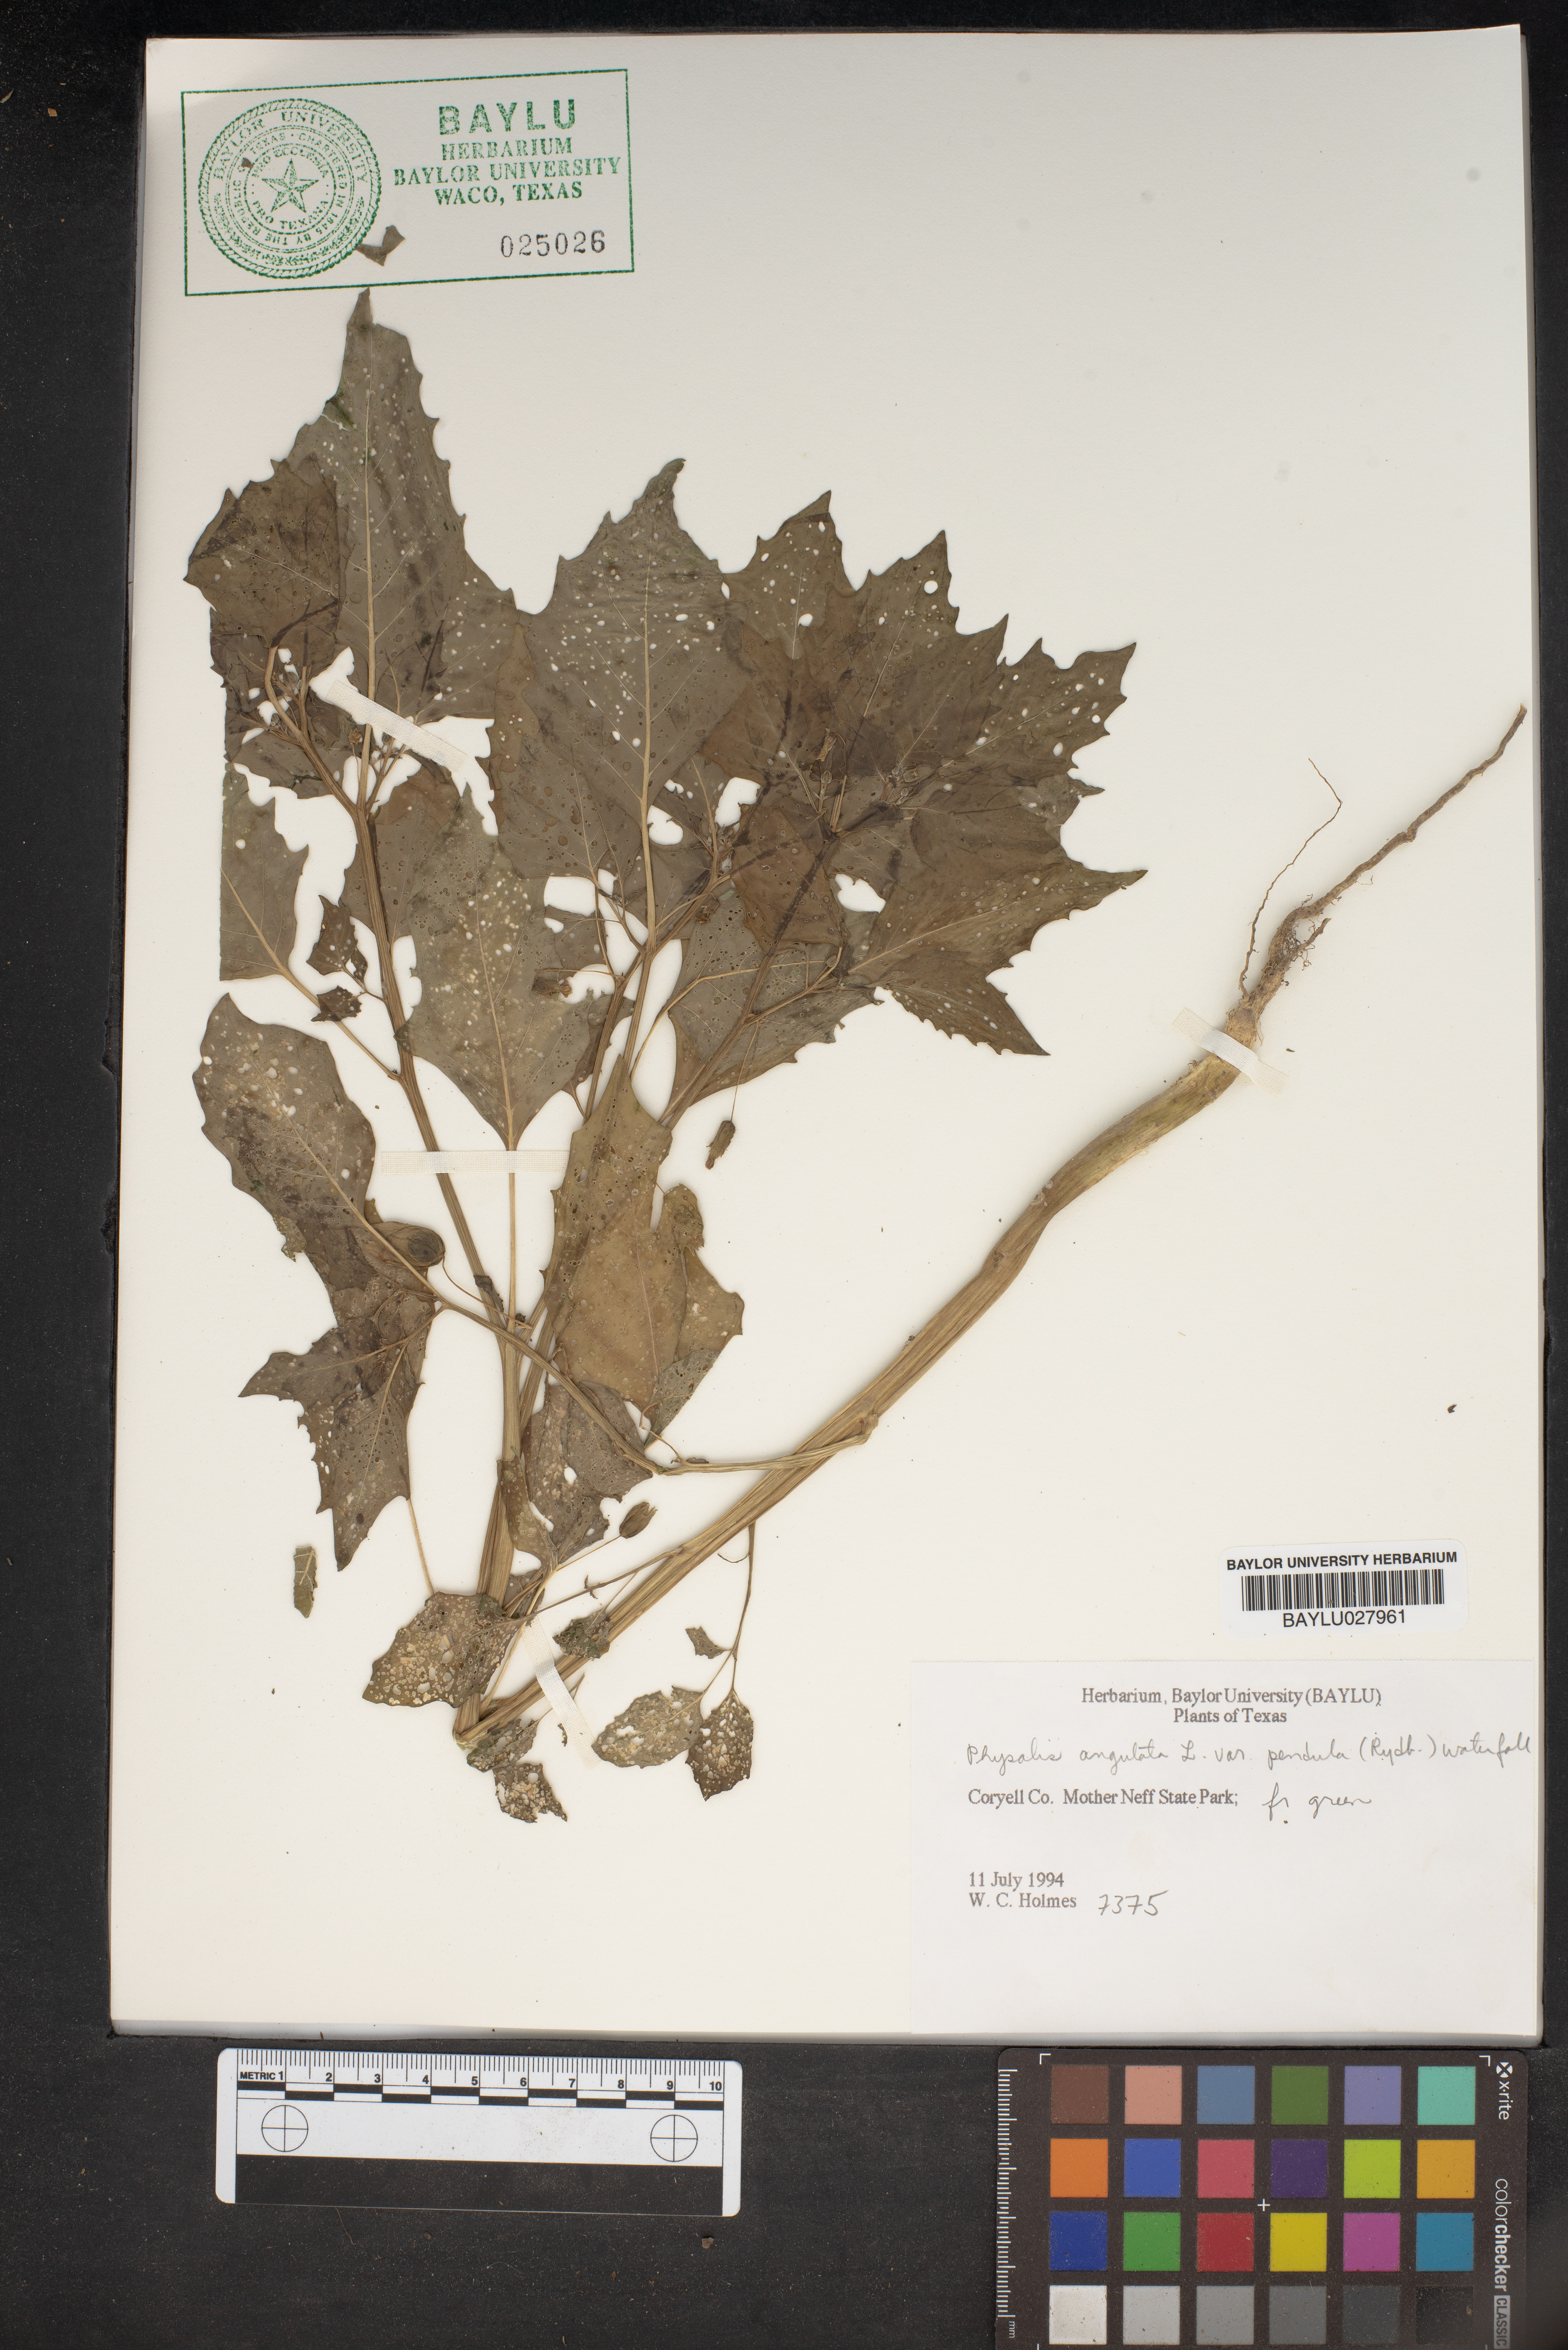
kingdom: Plantae
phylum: Tracheophyta
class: Magnoliopsida
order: Solanales
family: Solanaceae
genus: Physalis
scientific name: Physalis angulata
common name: Angular winter-cherry
